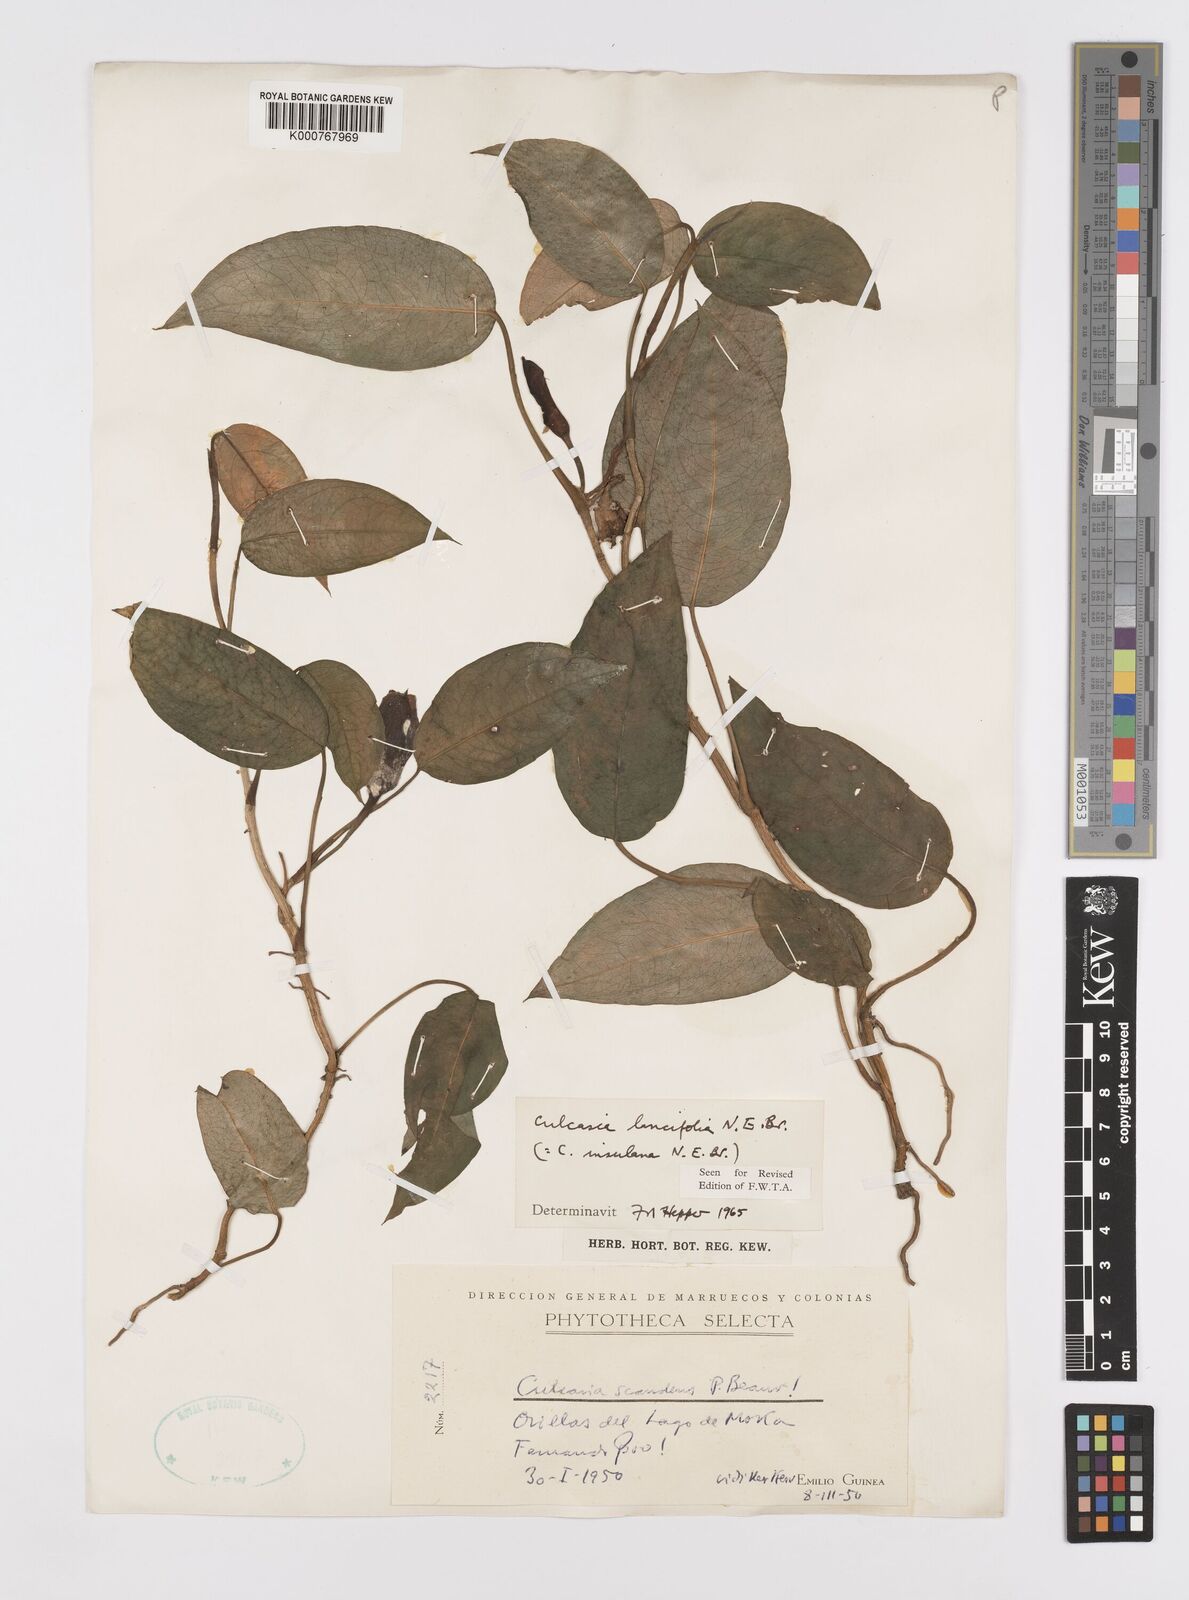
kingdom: Plantae
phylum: Tracheophyta
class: Liliopsida
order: Alismatales
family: Araceae
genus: Culcasia
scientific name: Culcasia insulana
